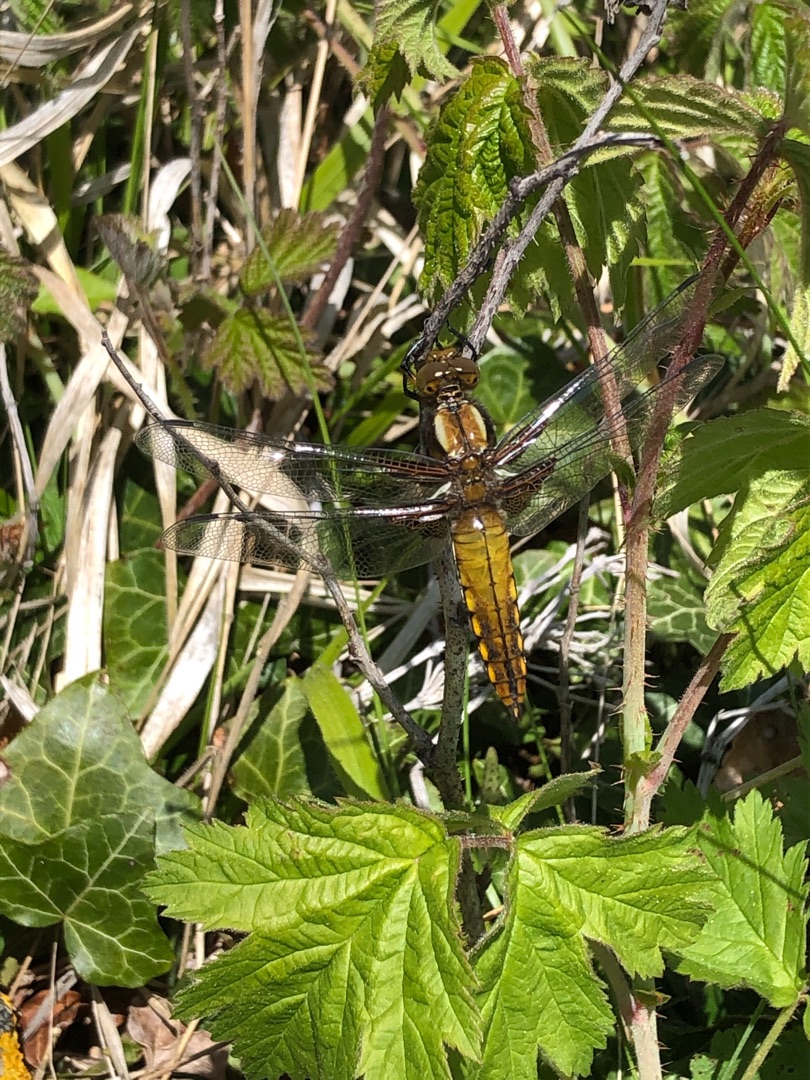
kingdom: Animalia
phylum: Arthropoda
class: Insecta
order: Odonata
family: Libellulidae
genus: Libellula
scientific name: Libellula depressa
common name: Blå libel
